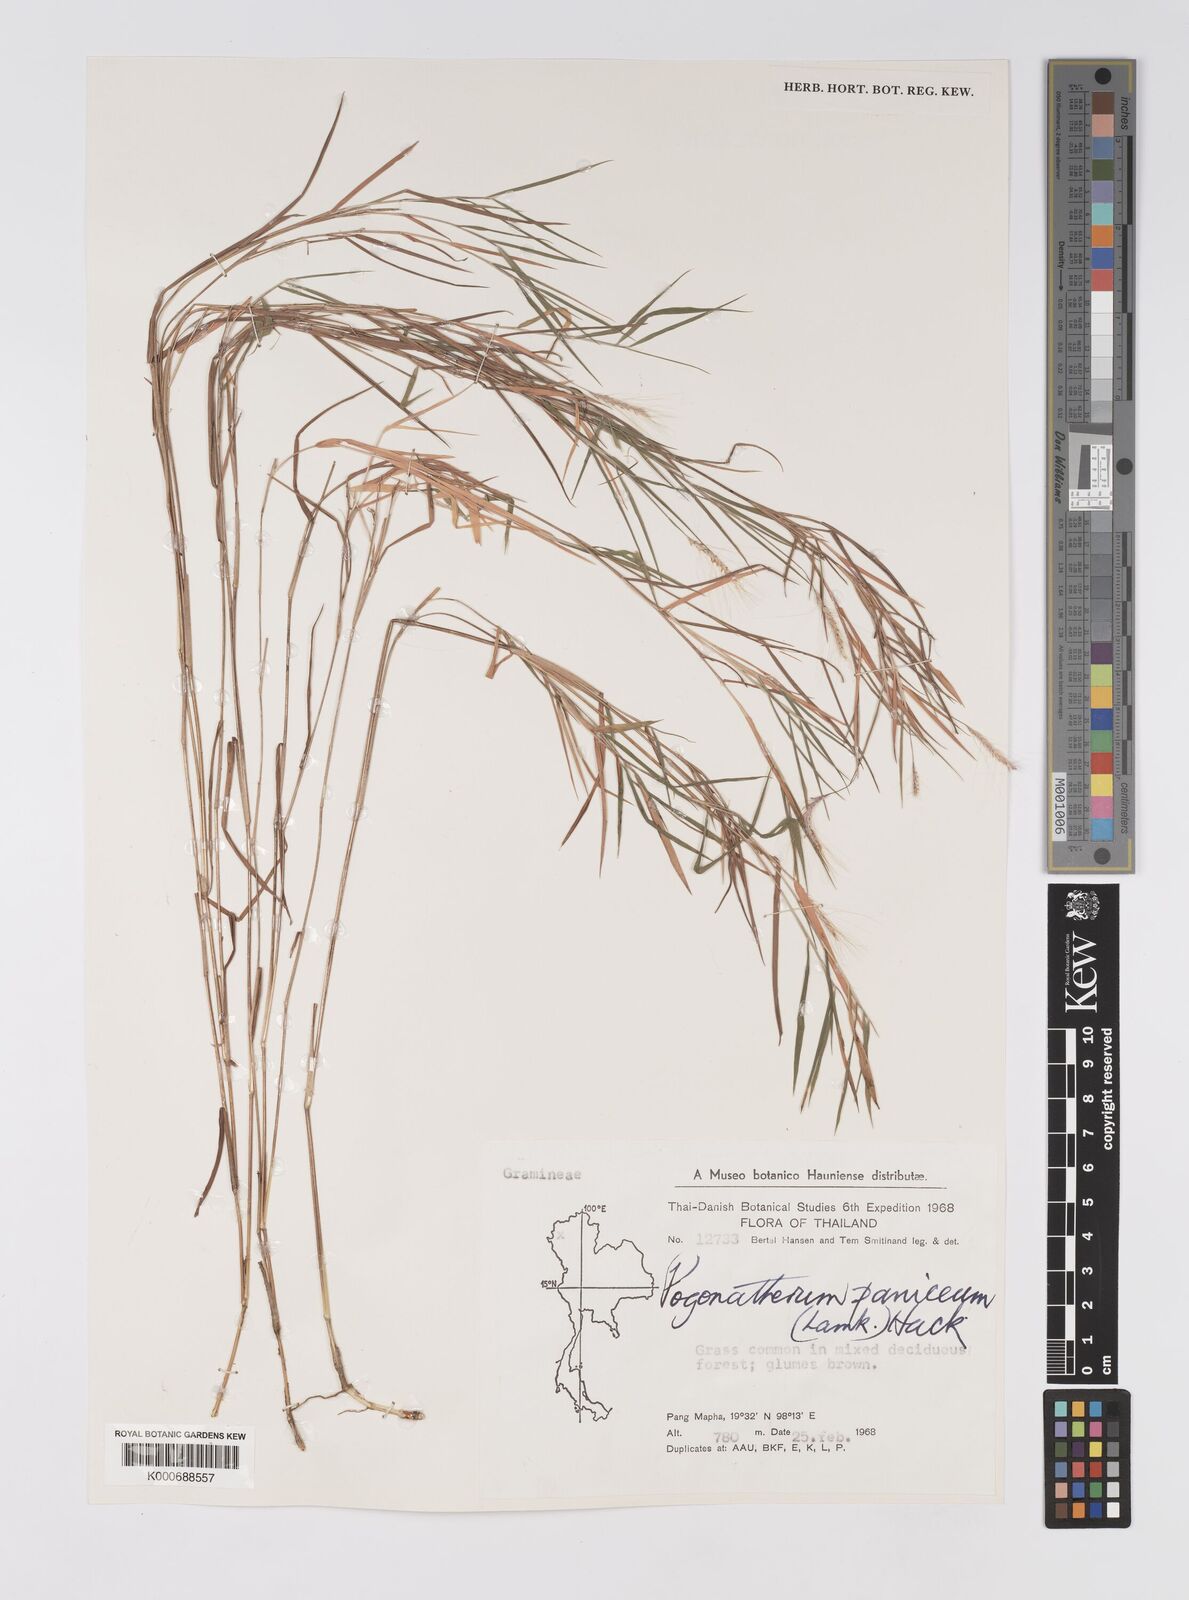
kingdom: Plantae
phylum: Tracheophyta
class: Liliopsida
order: Poales
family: Poaceae
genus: Pogonatherum
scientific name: Pogonatherum paniceum
